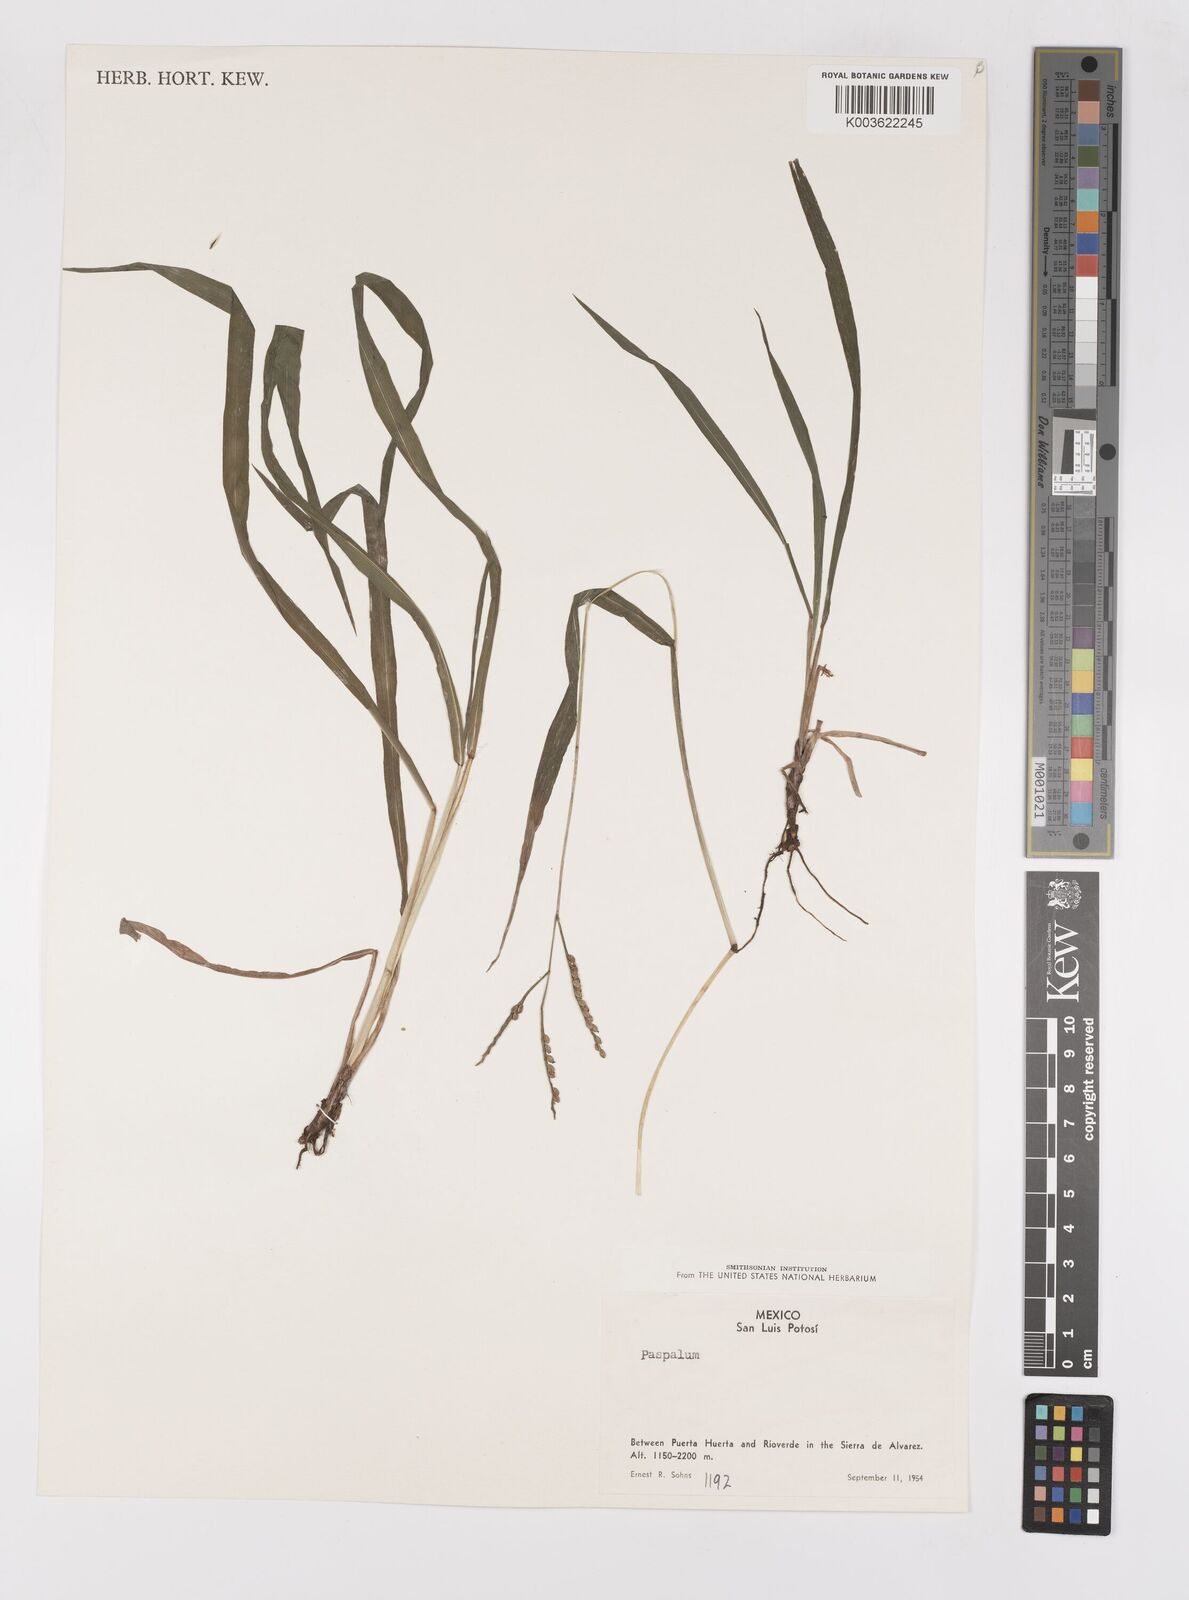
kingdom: Plantae
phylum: Tracheophyta
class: Liliopsida
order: Poales
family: Poaceae
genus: Paspalum
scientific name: Paspalum
